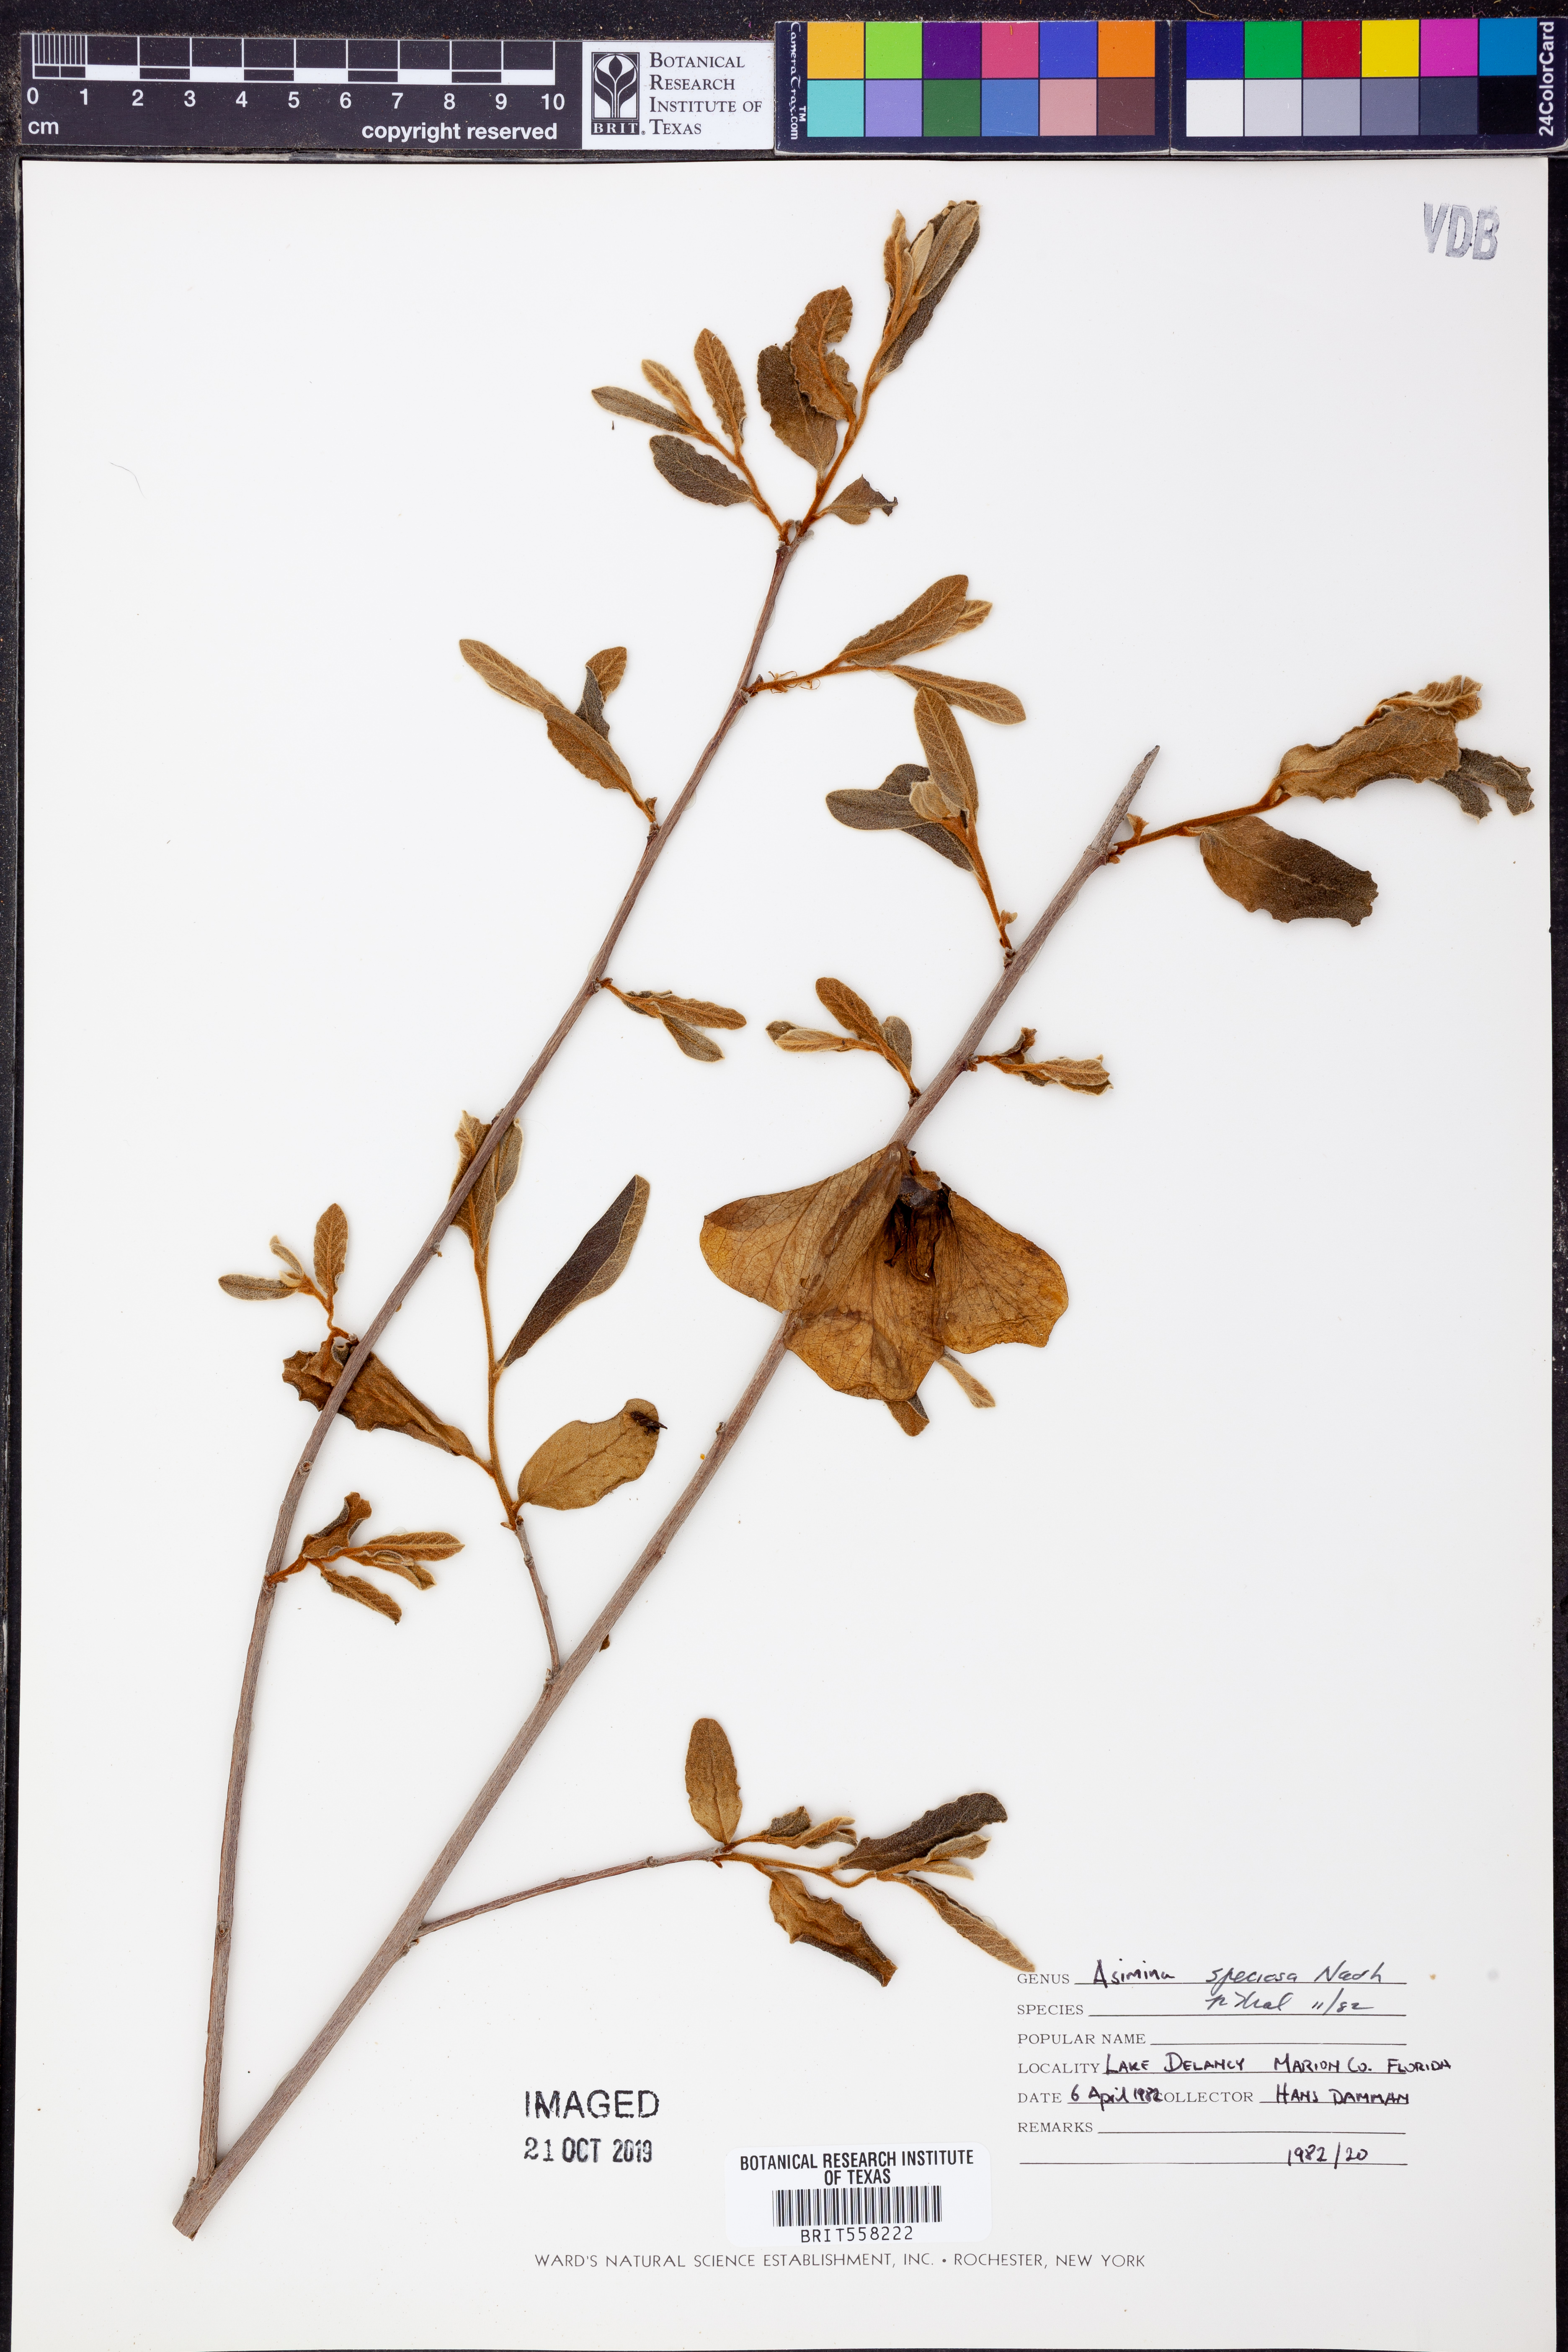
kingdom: Plantae
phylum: Tracheophyta
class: Magnoliopsida
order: Magnoliales
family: Annonaceae
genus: Asimina
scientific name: Asimina speciosa
